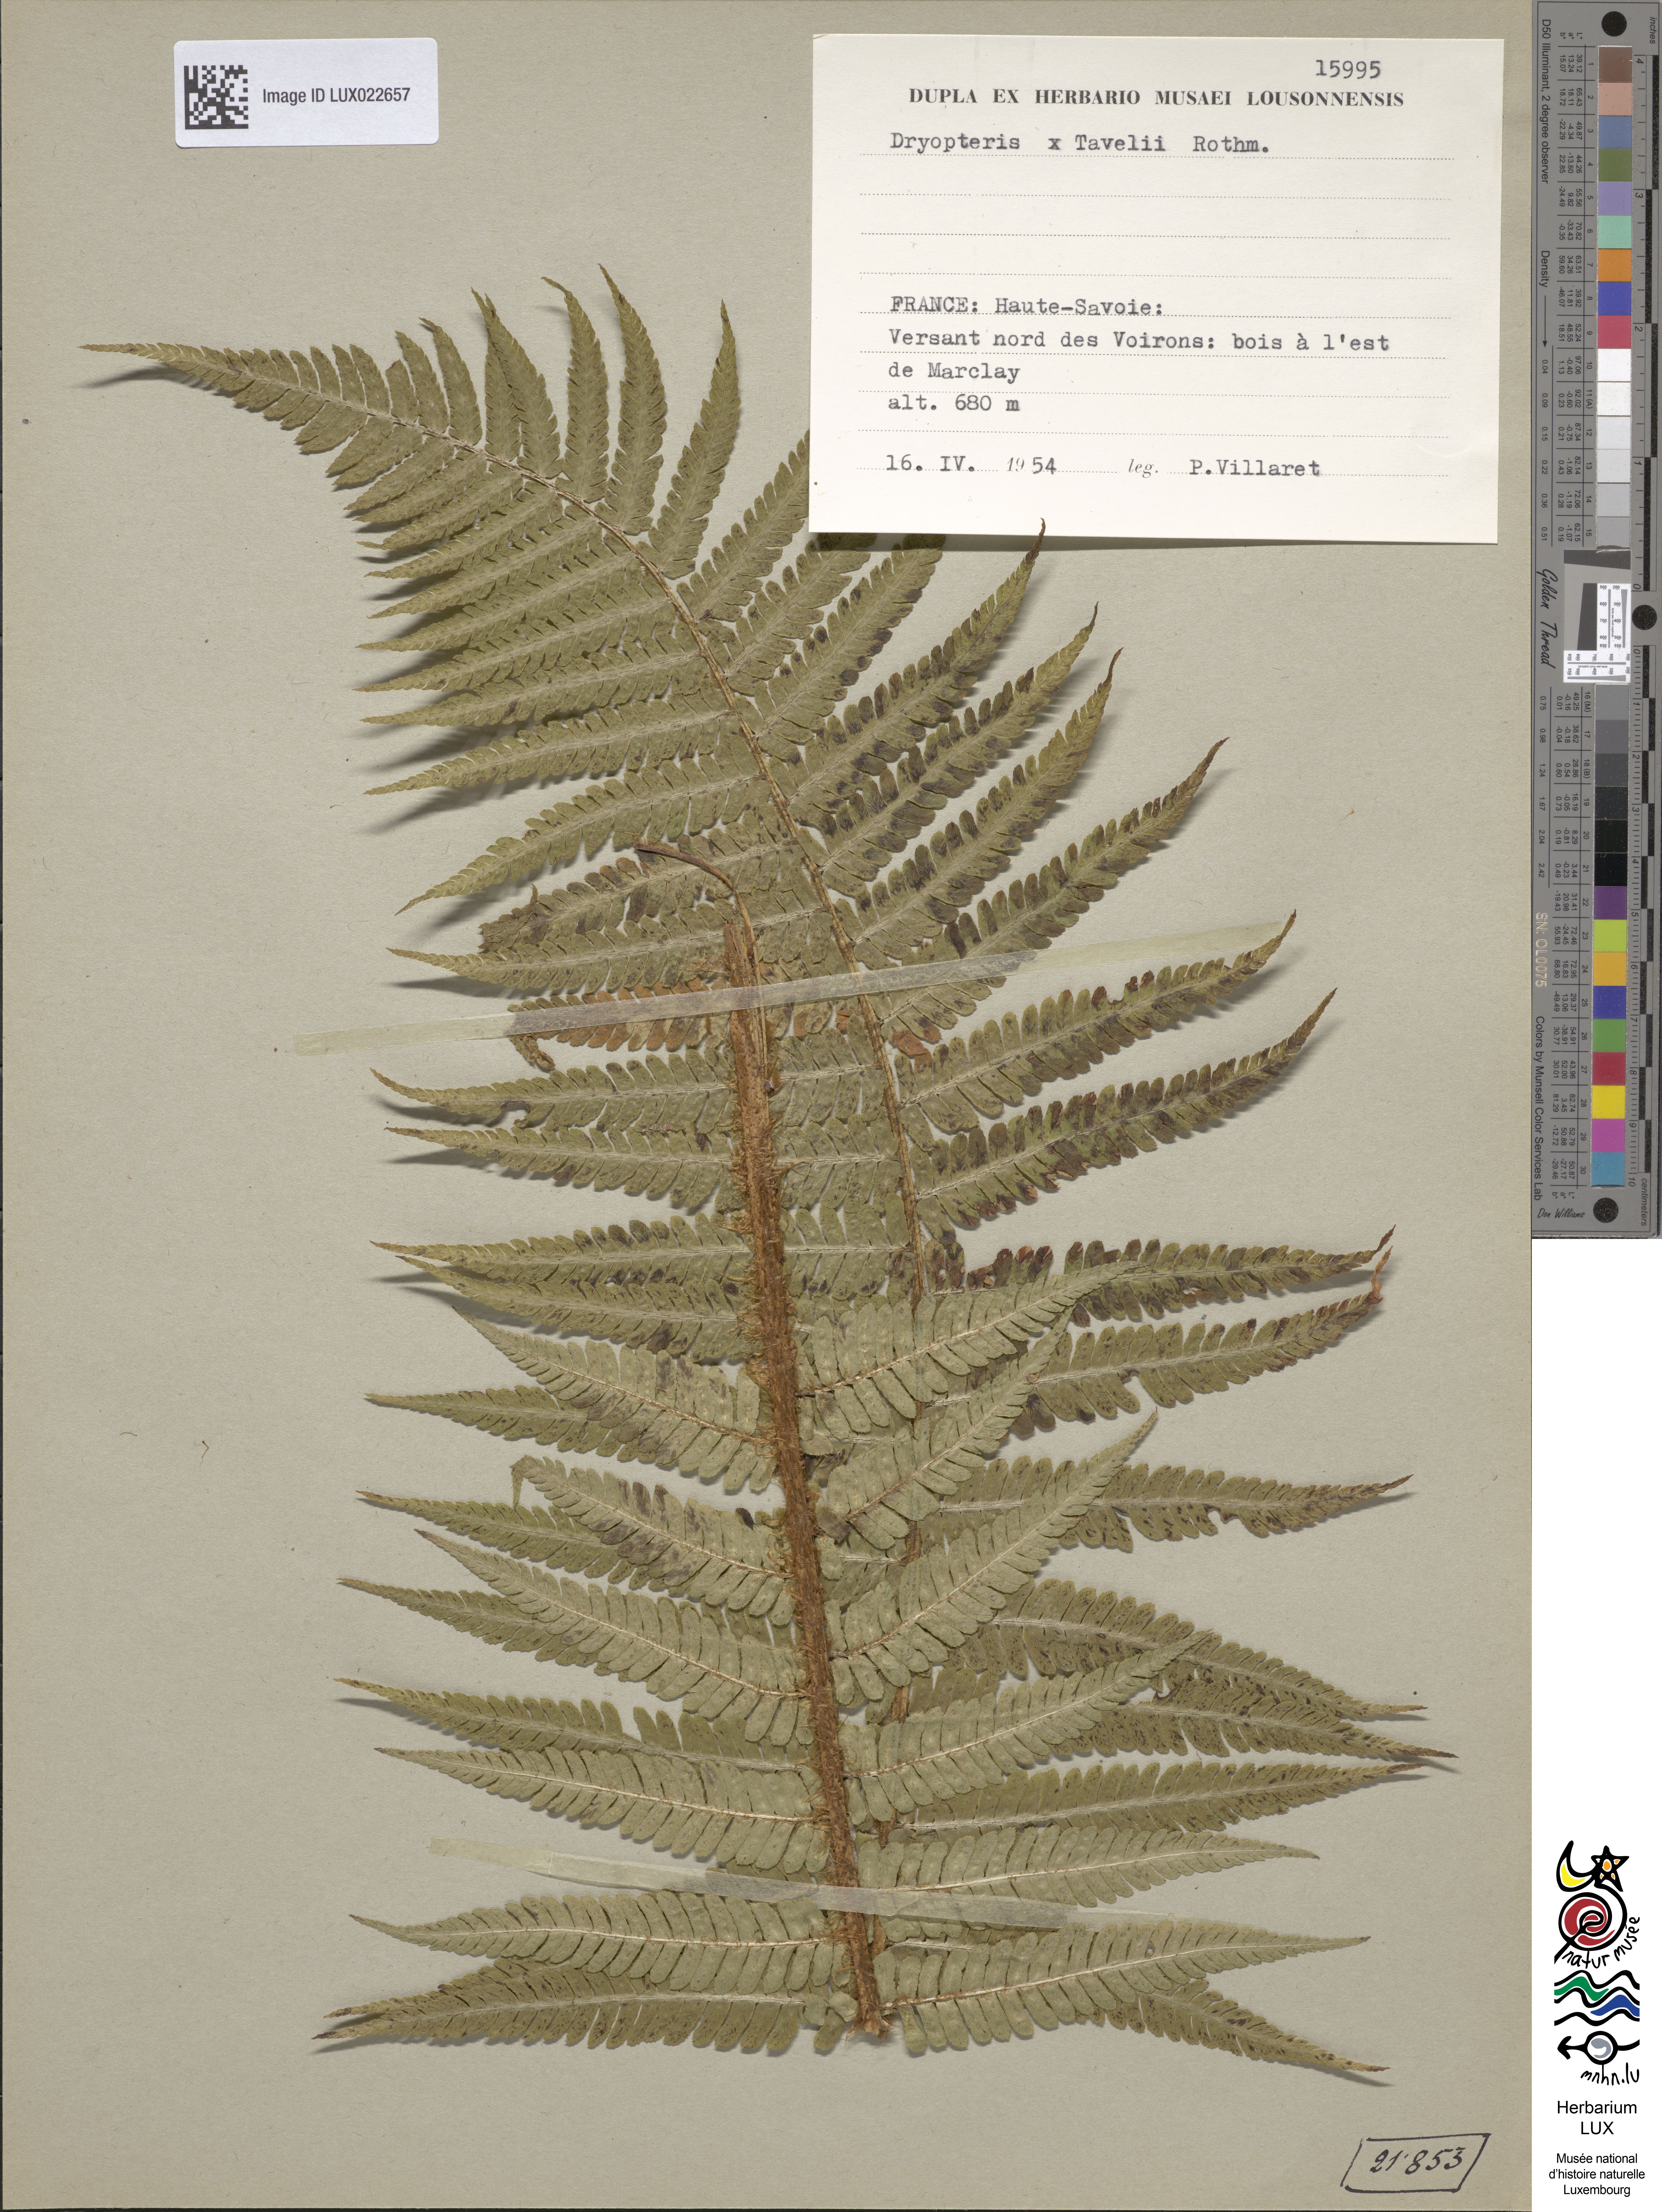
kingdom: Plantae
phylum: Tracheophyta
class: Polypodiopsida
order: Polypodiales
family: Dryopteridaceae
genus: Dryopteris
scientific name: Dryopteris borreri
